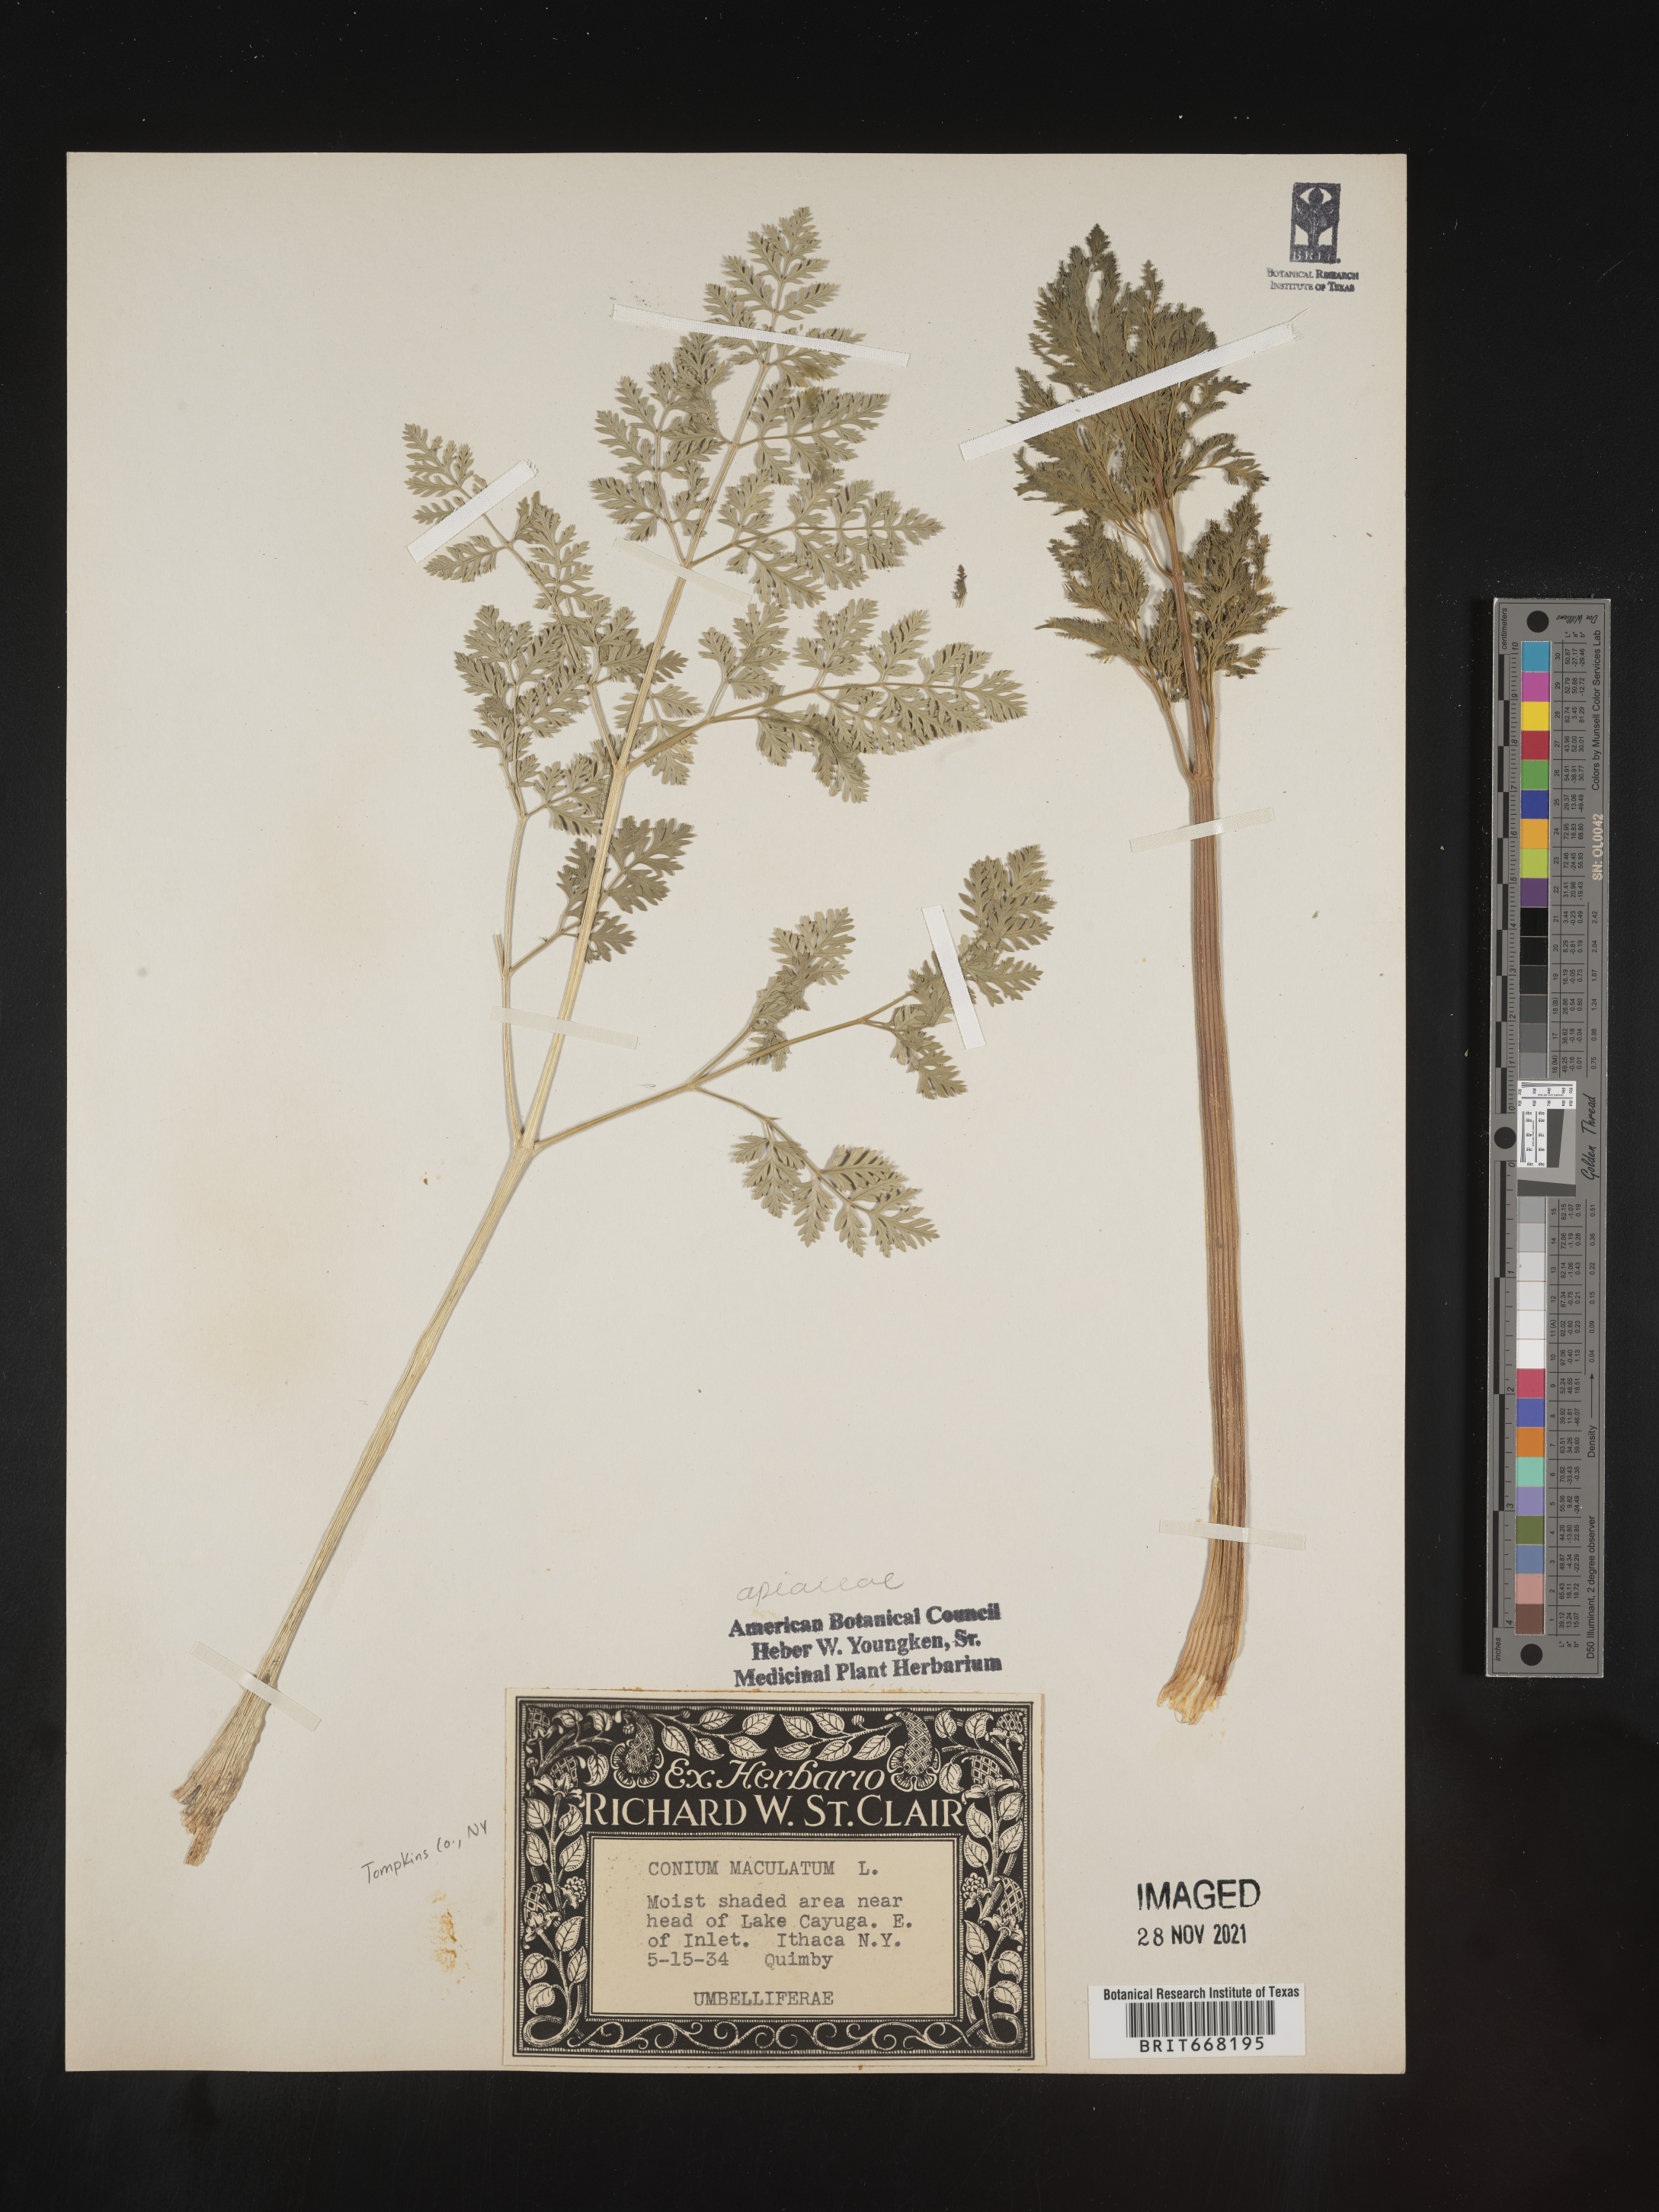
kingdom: Plantae
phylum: Tracheophyta
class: Magnoliopsida
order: Apiales
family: Apiaceae
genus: Conium
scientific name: Conium maculatum
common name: Hemlock
